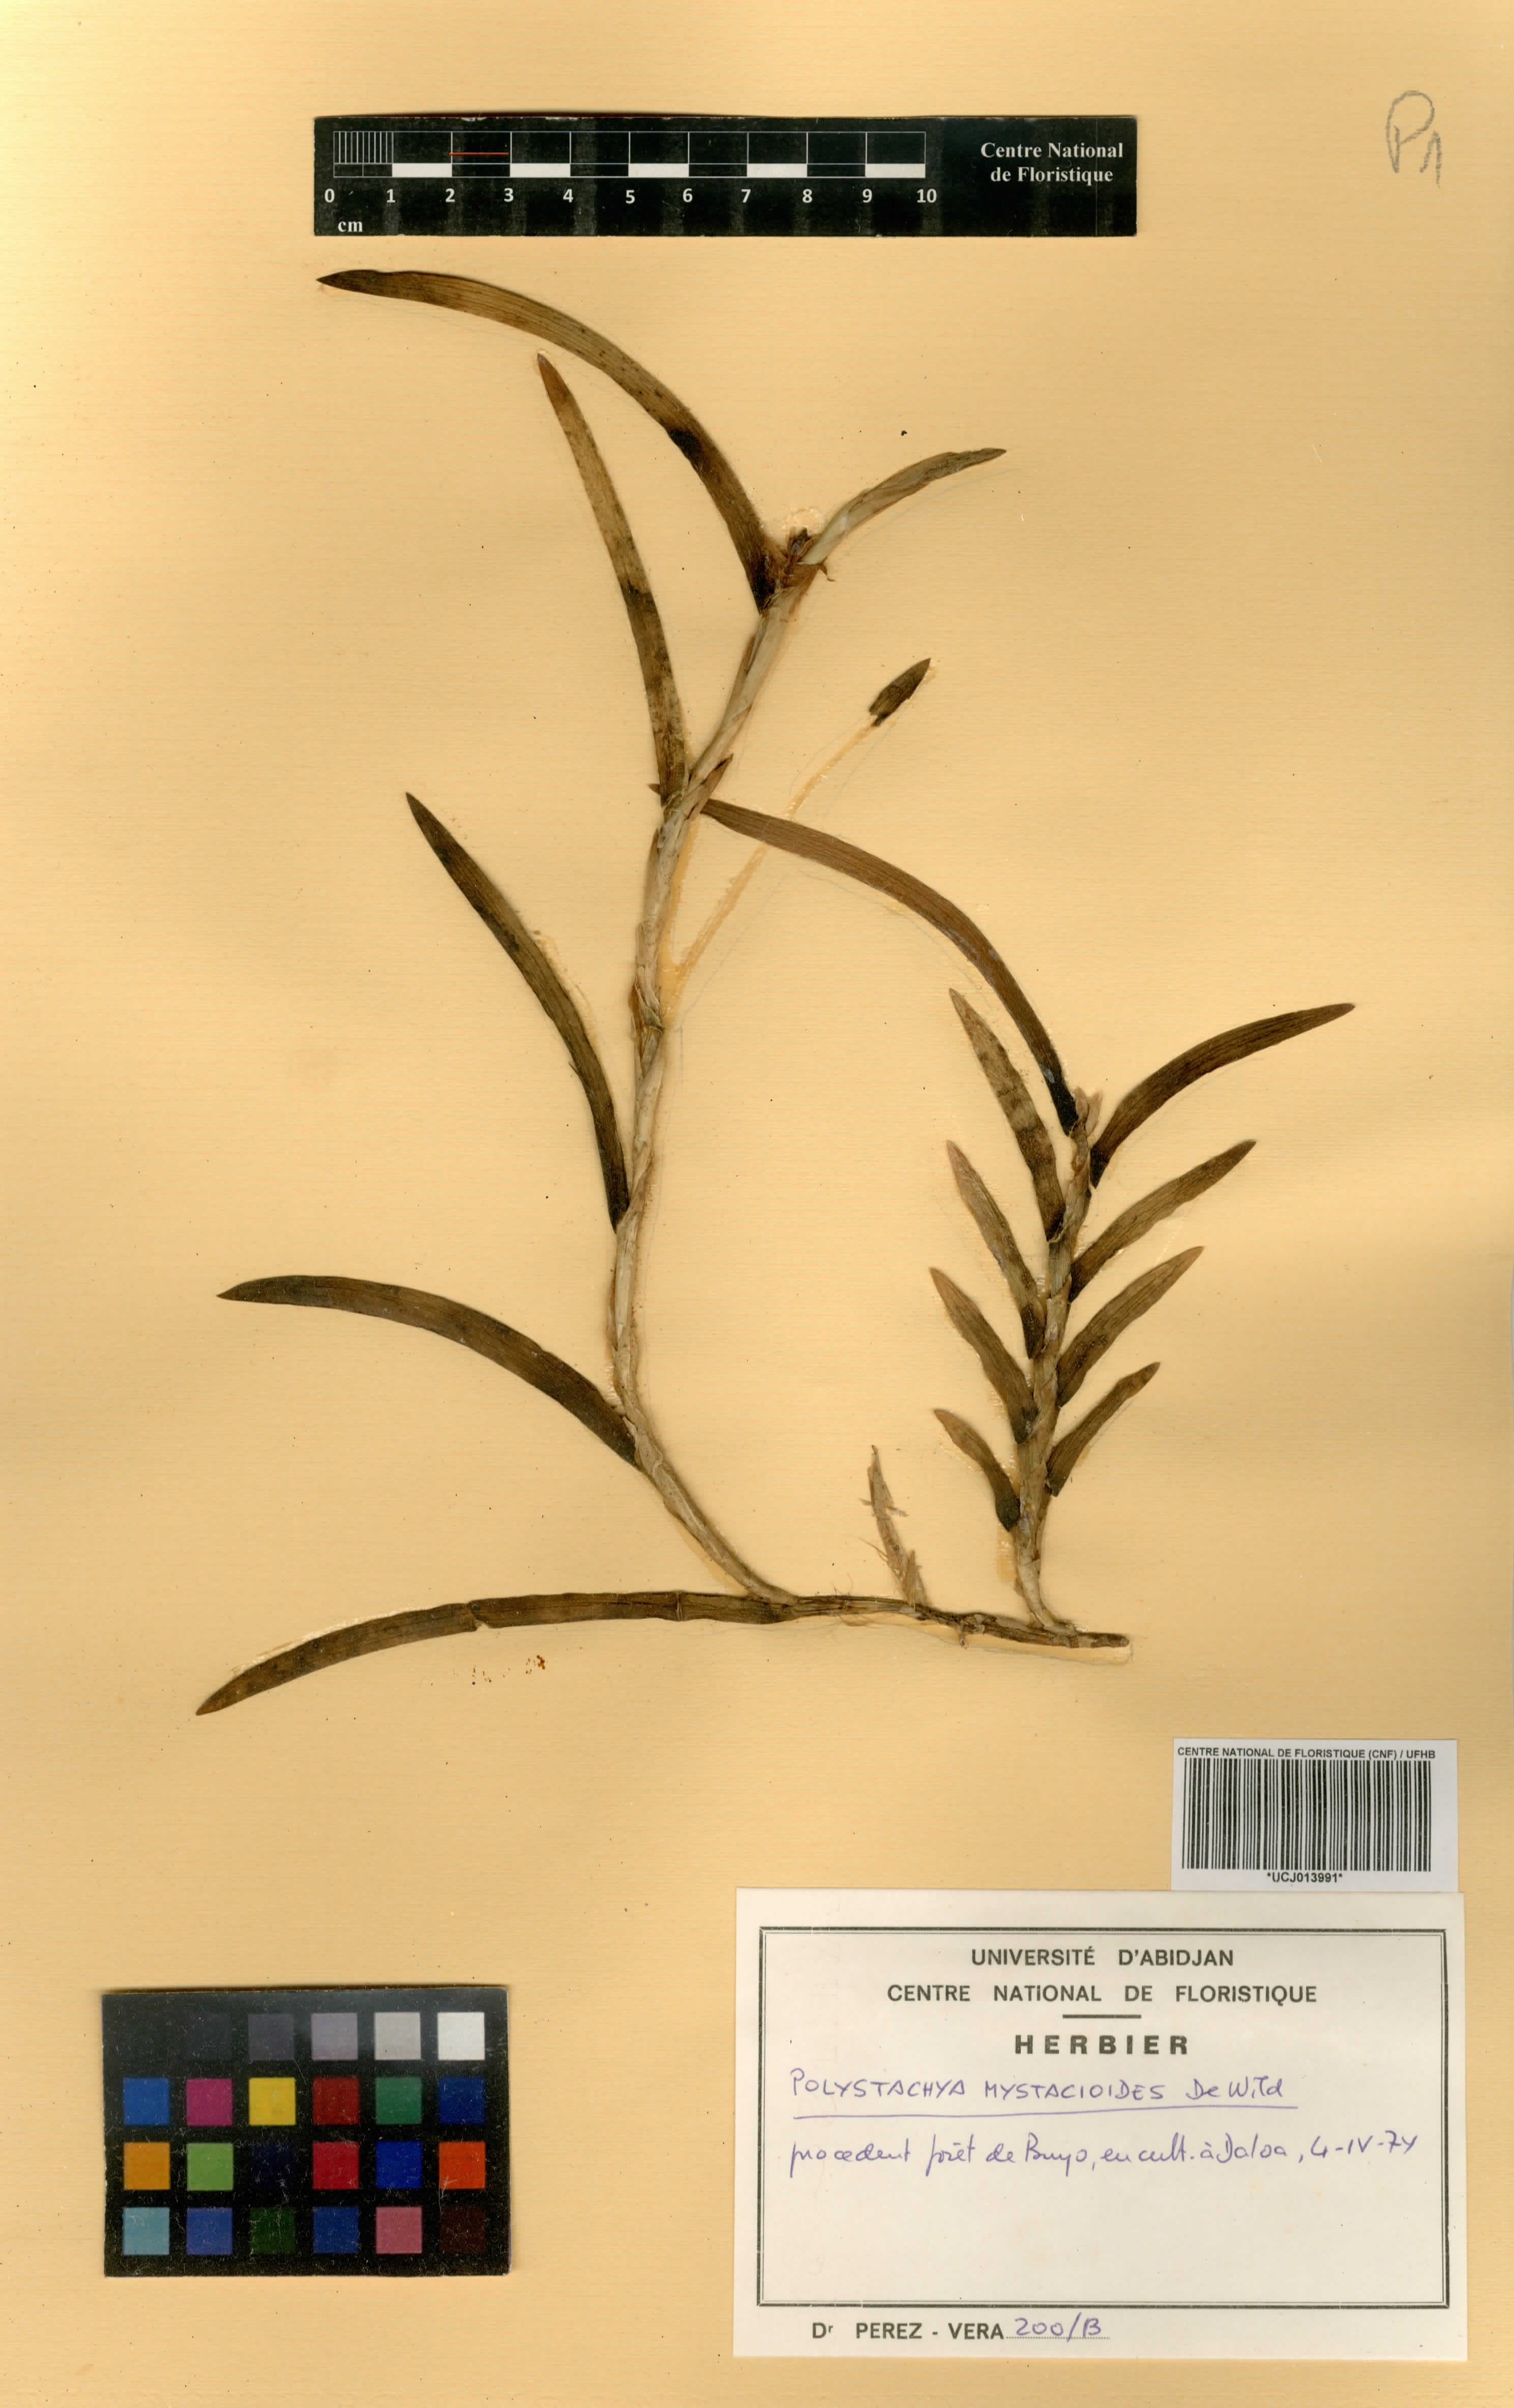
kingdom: Plantae
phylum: Tracheophyta
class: Liliopsida
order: Asparagales
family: Orchidaceae
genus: Polystachya
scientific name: Polystachya mystacioides
